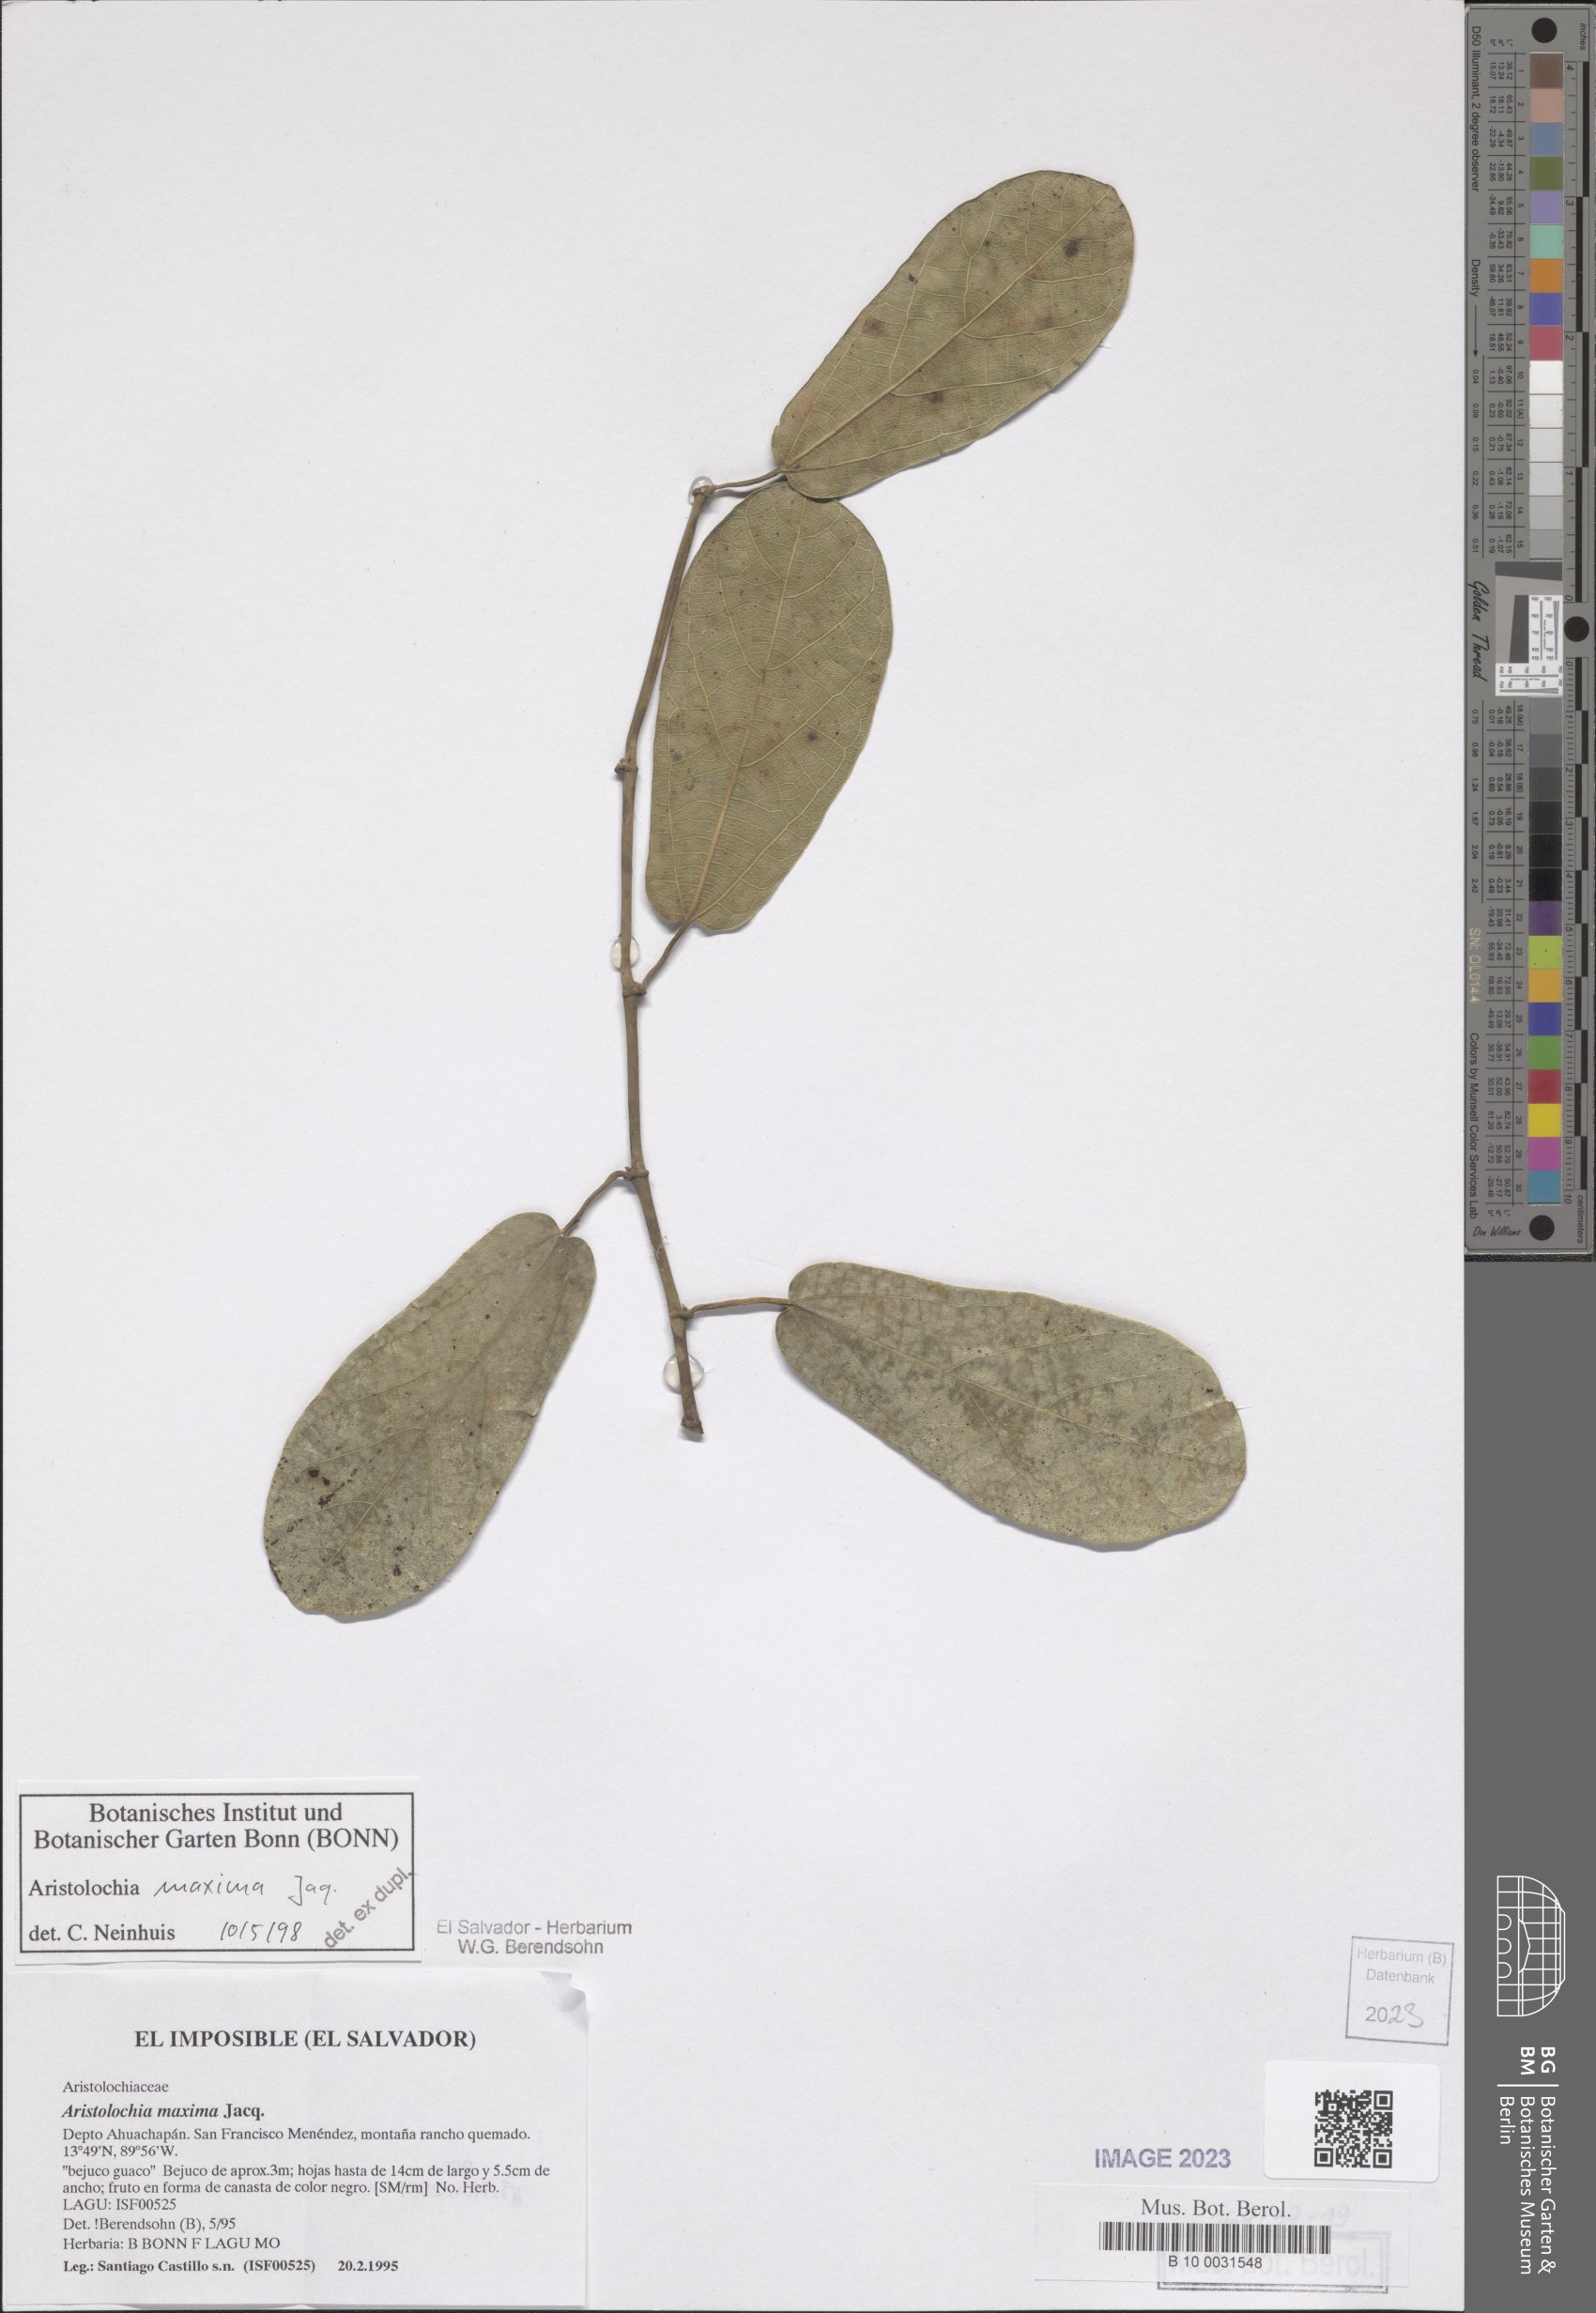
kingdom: Plantae
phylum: Tracheophyta
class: Magnoliopsida
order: Piperales
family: Aristolochiaceae
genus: Aristolochia
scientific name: Aristolochia maxima
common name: Florida dutchman's pipe
